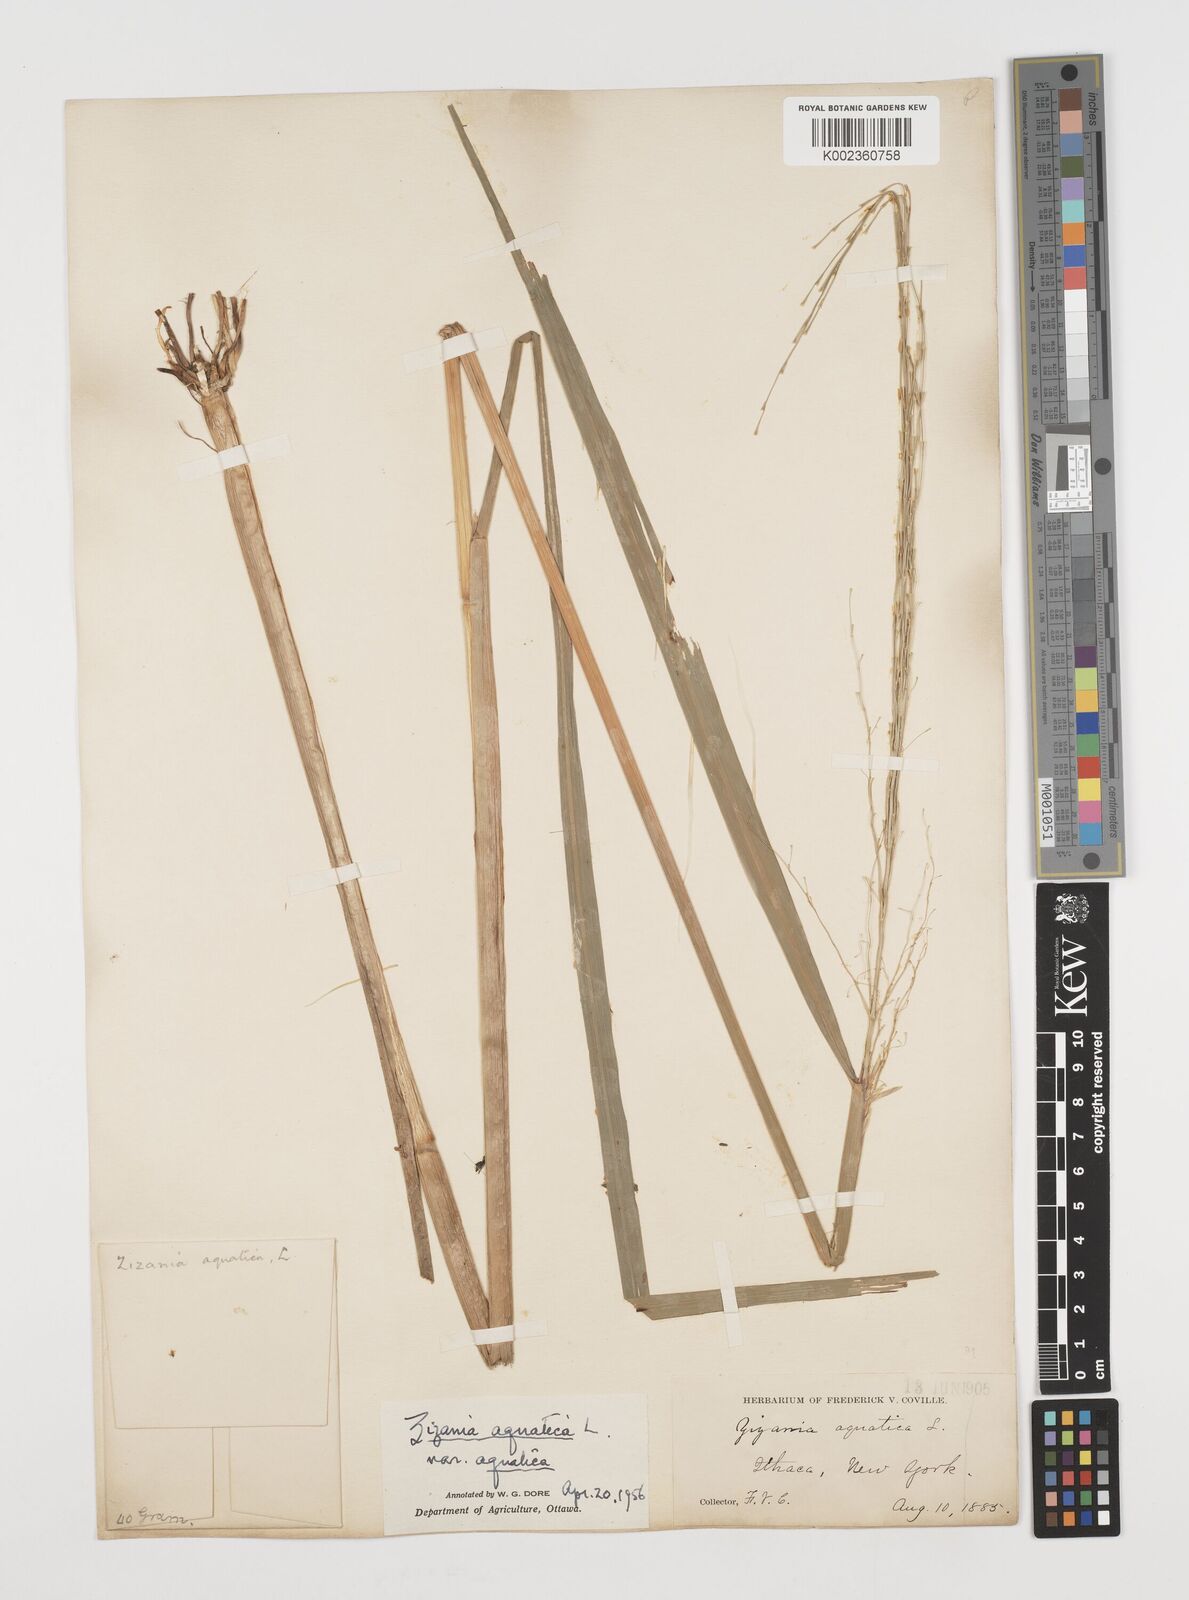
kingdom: Plantae
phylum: Tracheophyta
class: Liliopsida
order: Poales
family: Poaceae
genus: Zizania
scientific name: Zizania aquatica
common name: Annual wildrice
